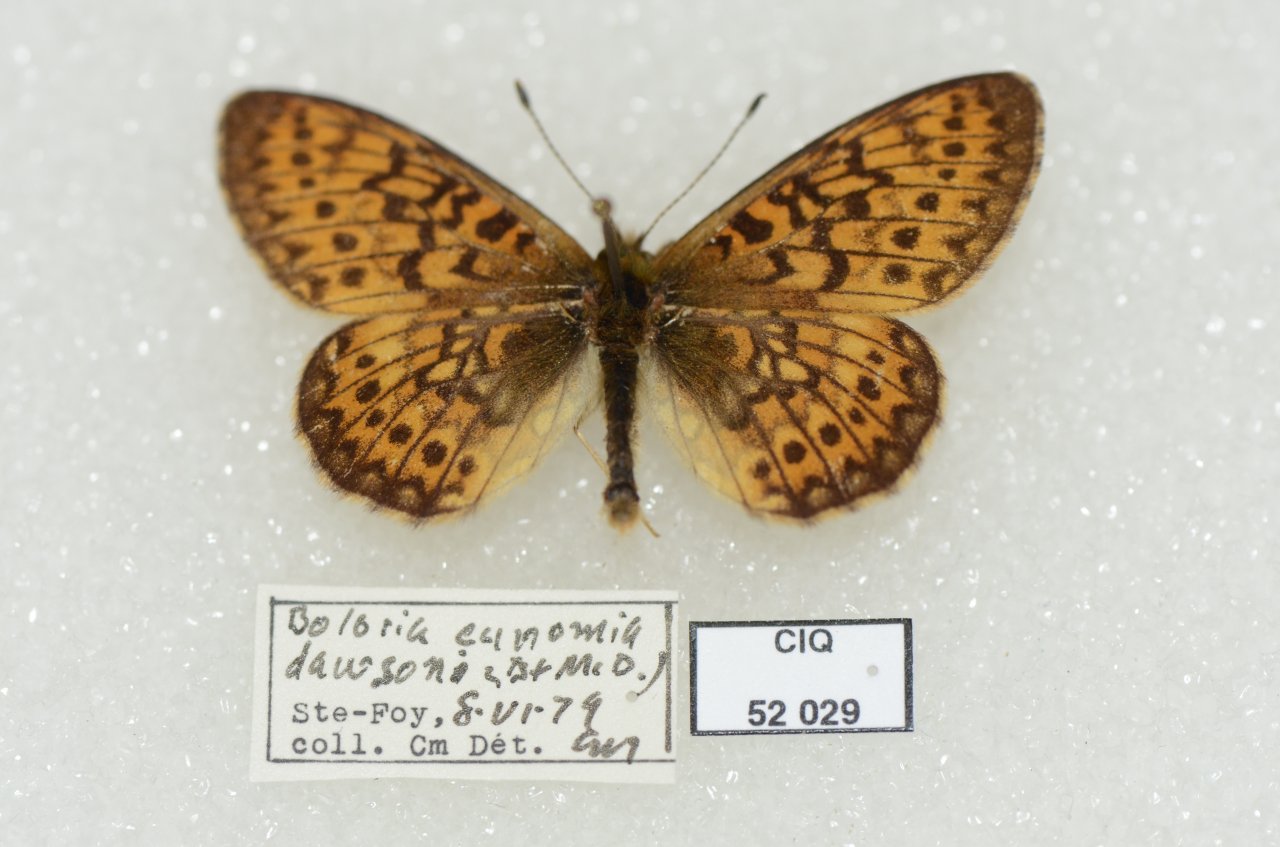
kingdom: Animalia
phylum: Arthropoda
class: Insecta
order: Lepidoptera
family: Nymphalidae
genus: Boloria
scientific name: Boloria eunomia
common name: Bog Fritillary
